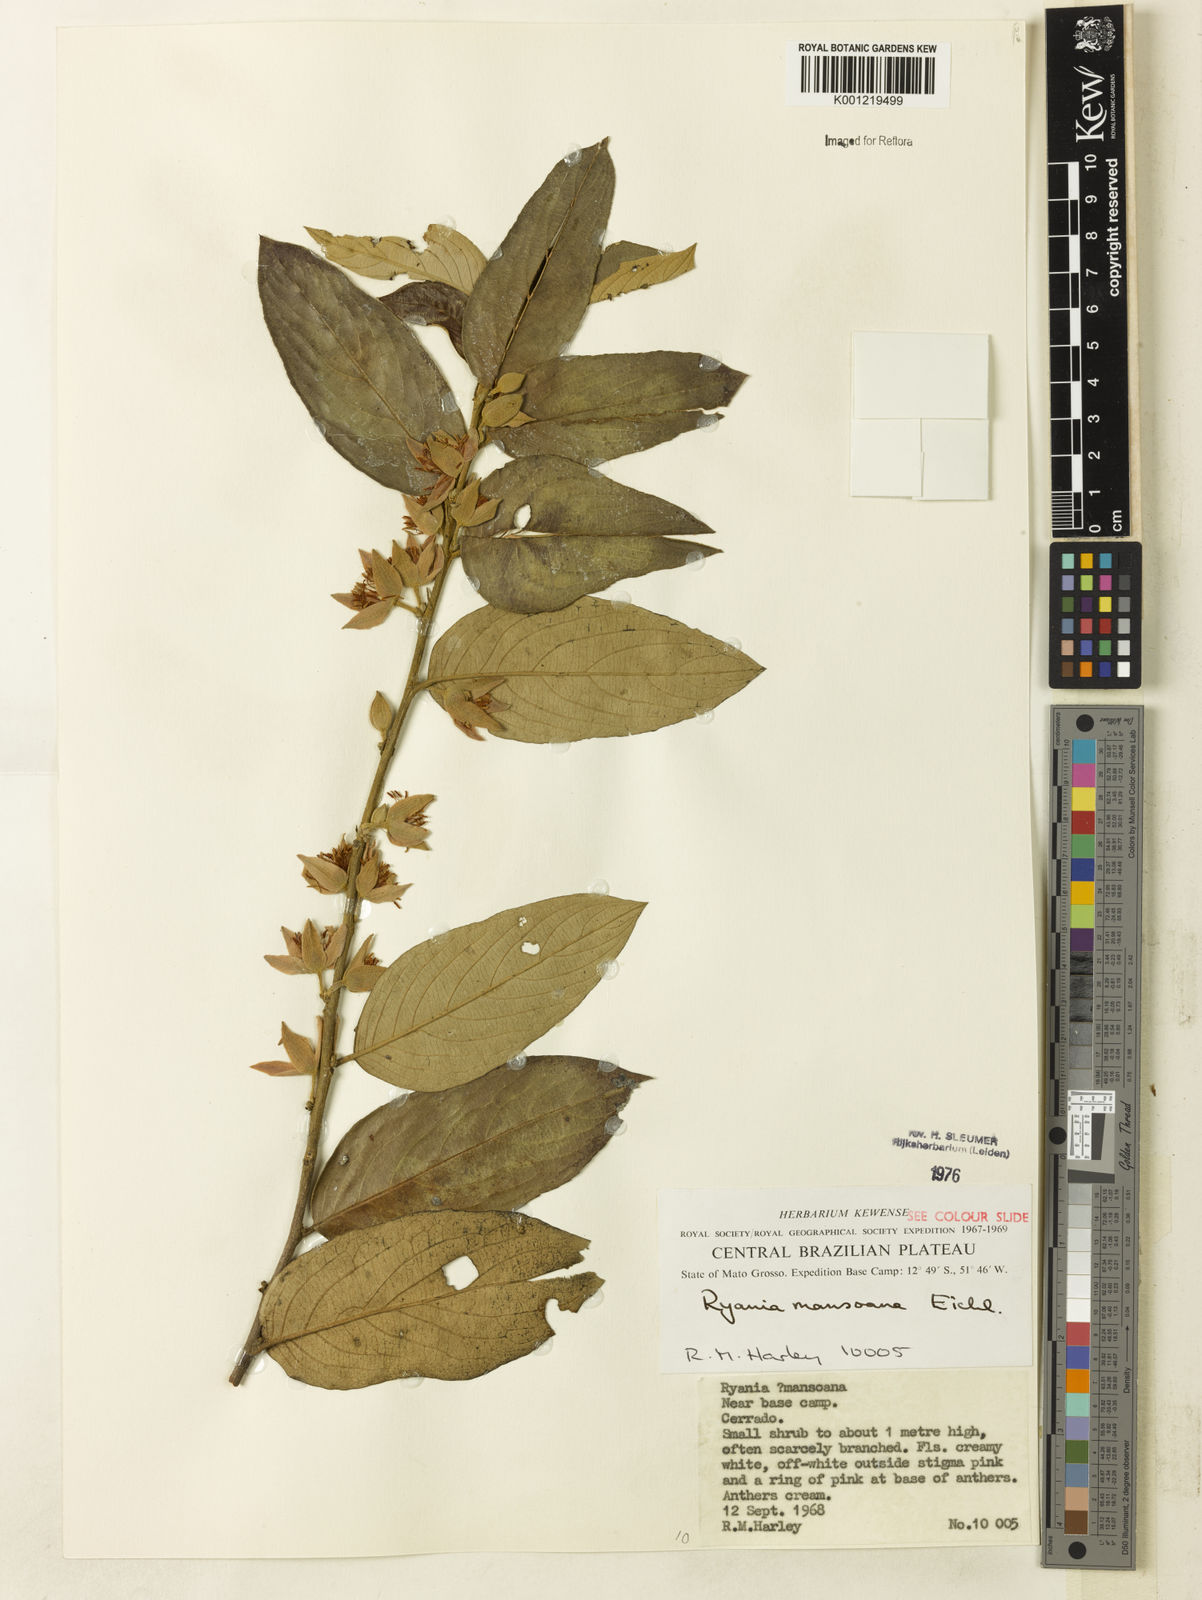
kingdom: Plantae
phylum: Tracheophyta
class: Magnoliopsida
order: Malpighiales
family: Salicaceae
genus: Ryania
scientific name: Ryania mansoana
